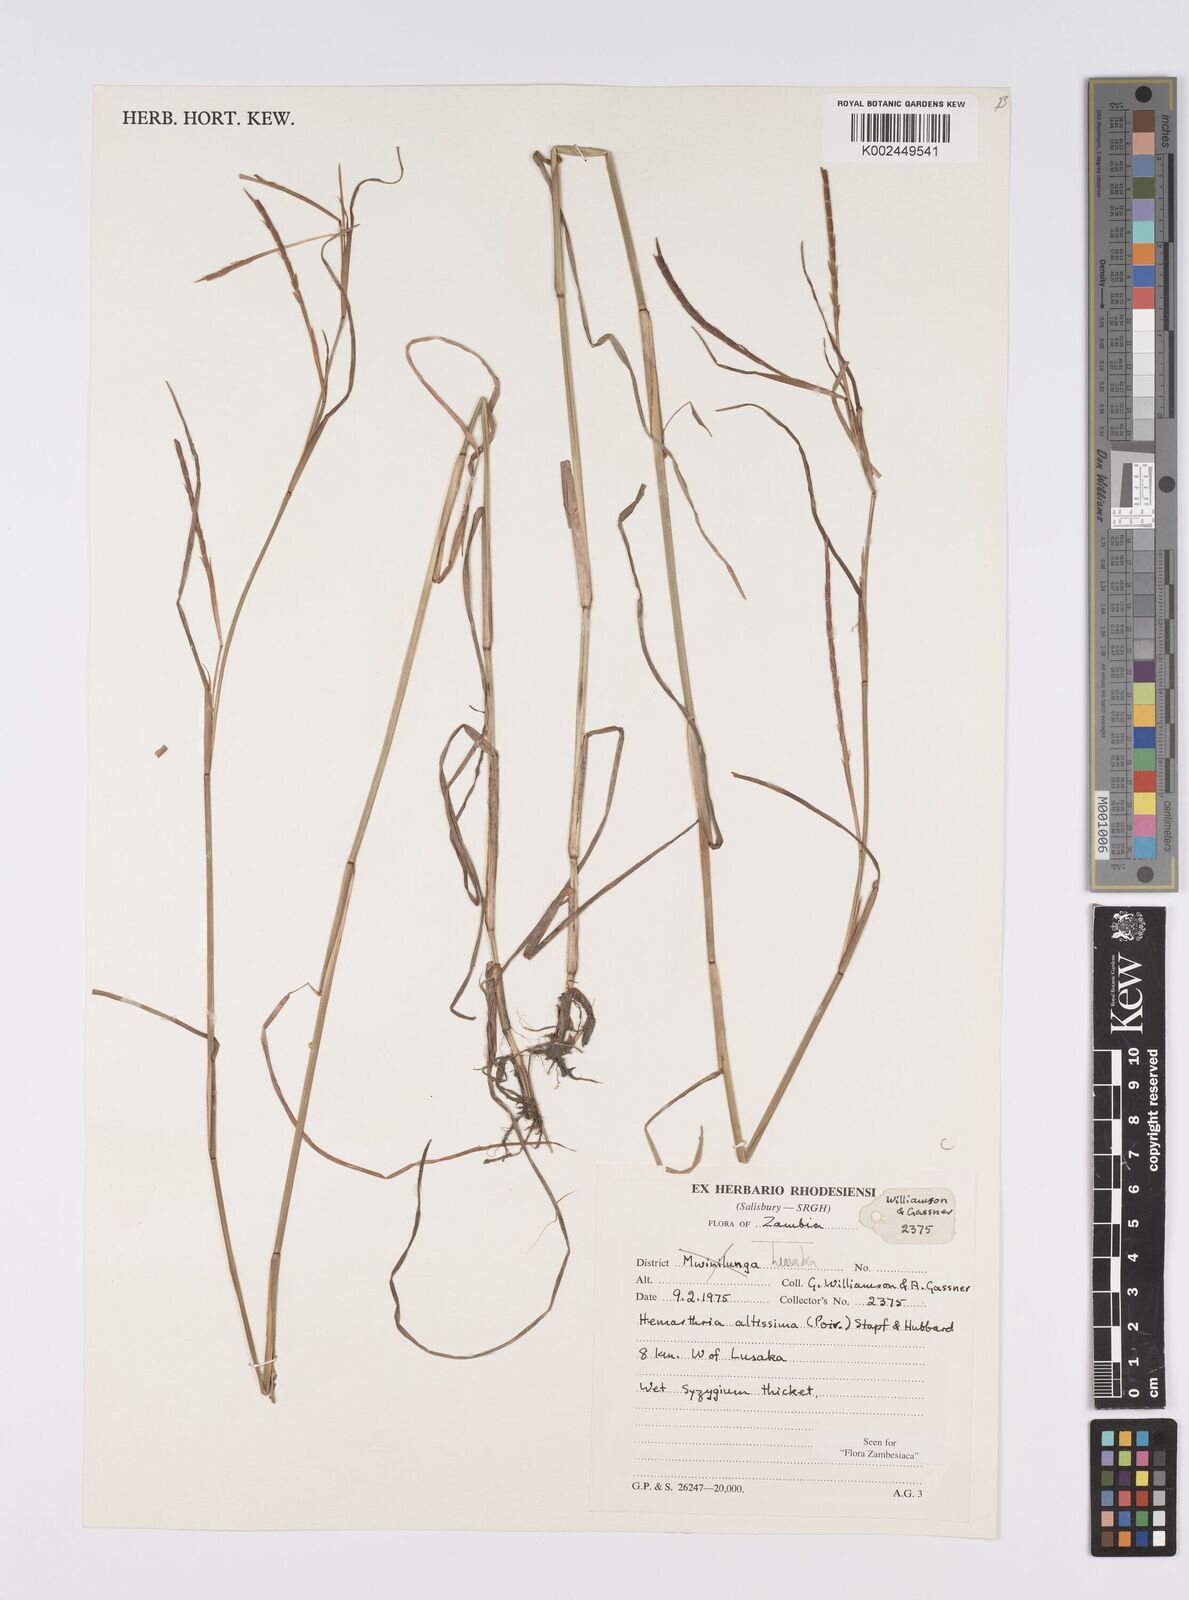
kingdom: Plantae
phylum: Tracheophyta
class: Liliopsida
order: Poales
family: Poaceae
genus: Hemarthria
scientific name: Hemarthria altissima
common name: African jointgrass
